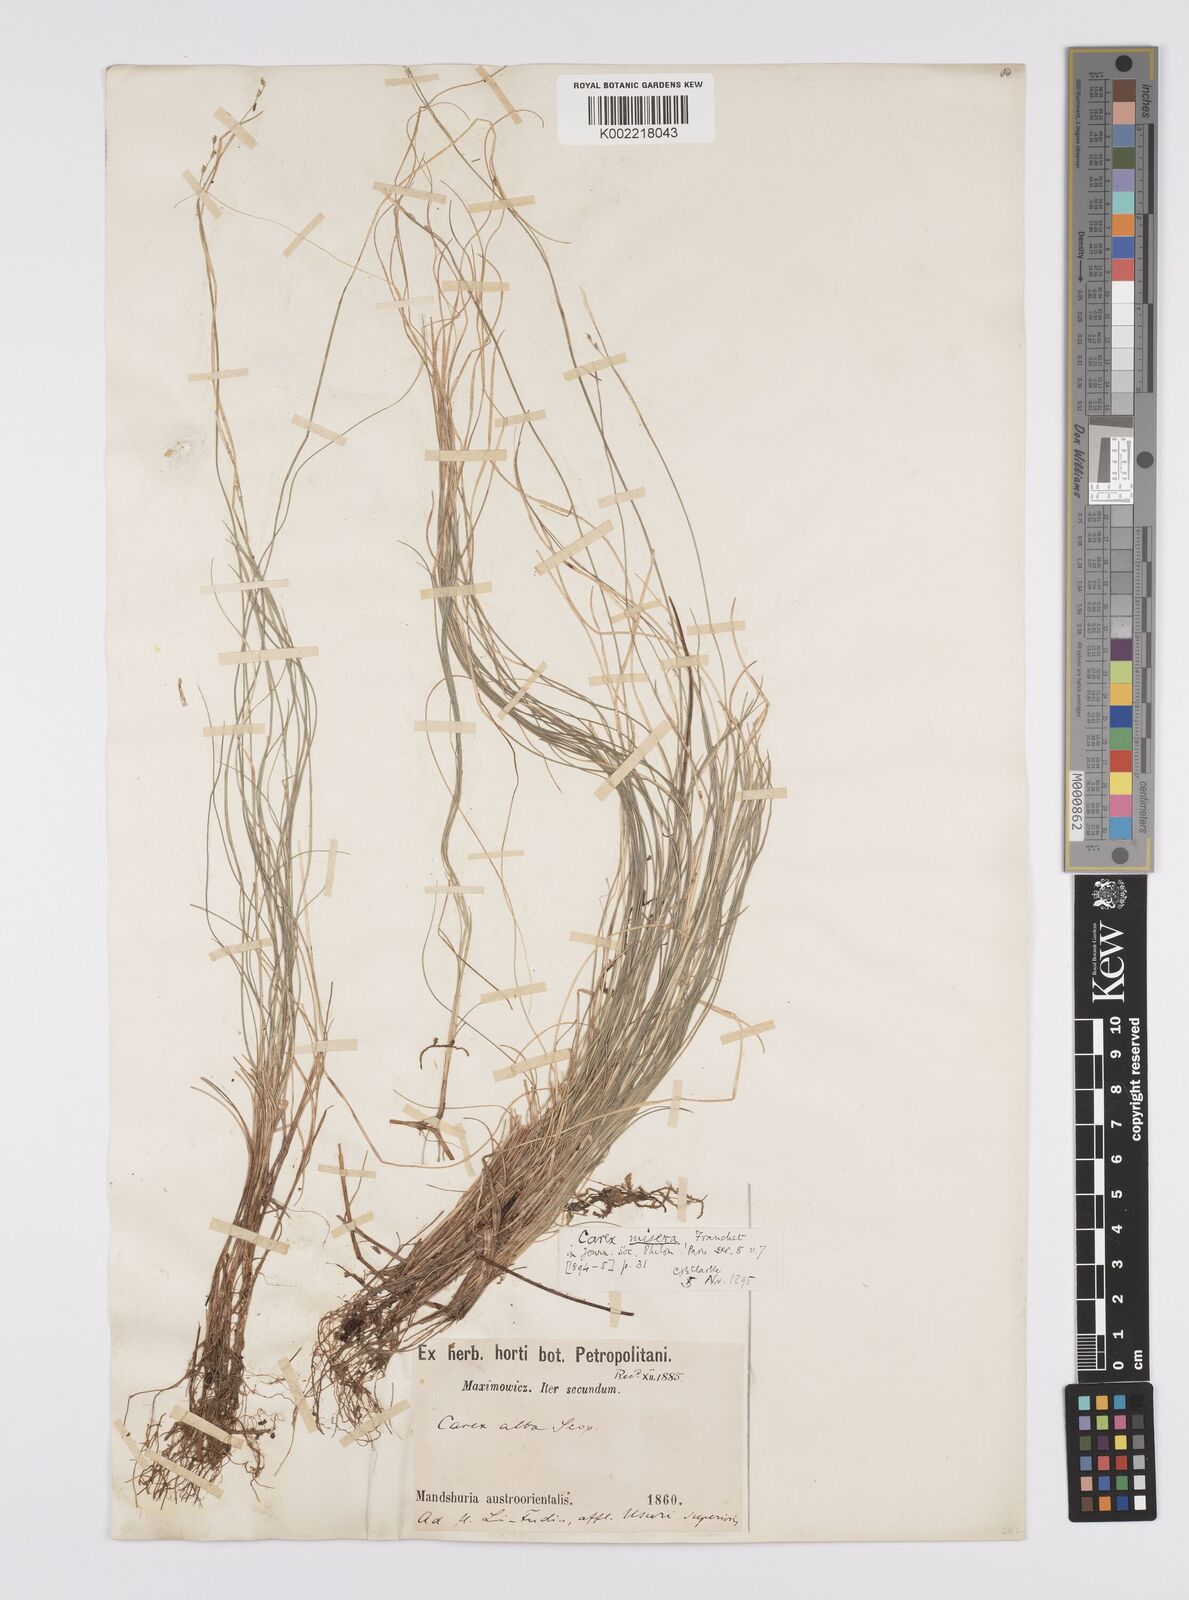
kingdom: Plantae
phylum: Tracheophyta
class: Liliopsida
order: Poales
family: Cyperaceae
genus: Carex
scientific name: Carex disperma
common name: Short-leaved sedge
